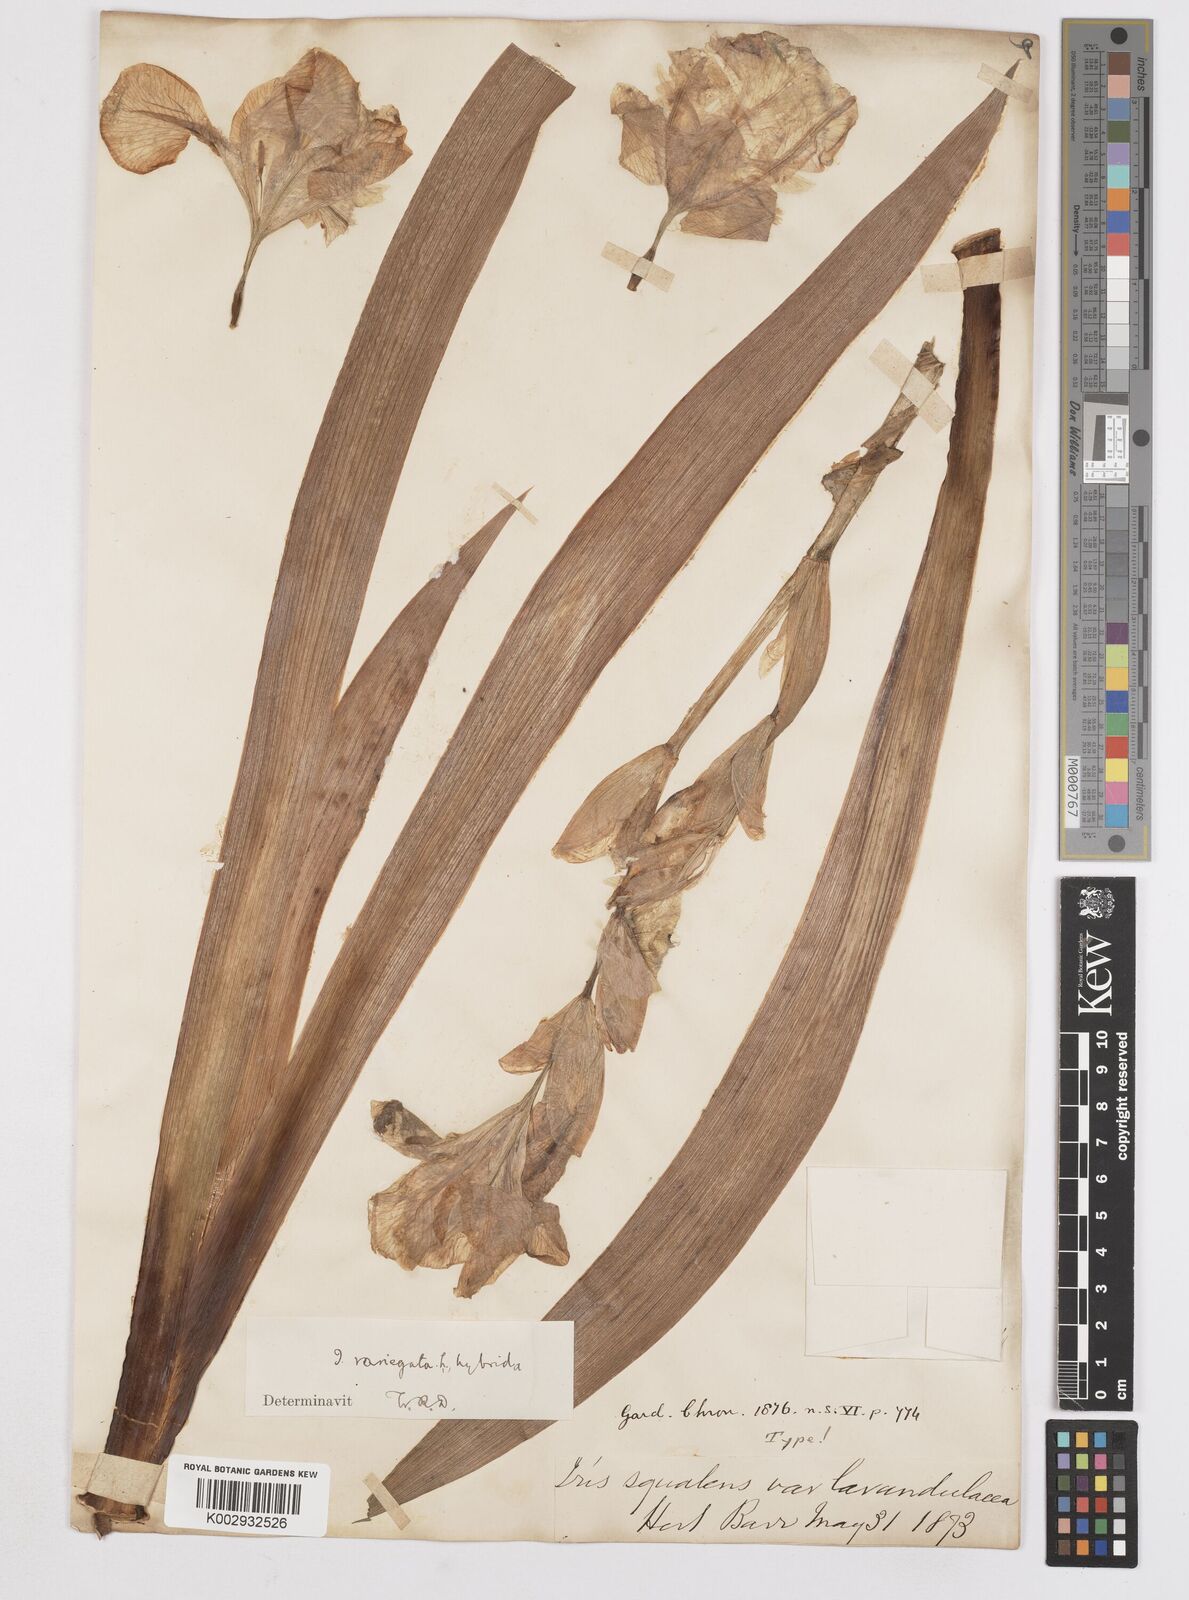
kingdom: Plantae
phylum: Tracheophyta
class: Liliopsida
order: Asparagales
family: Iridaceae
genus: Iris
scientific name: Iris
